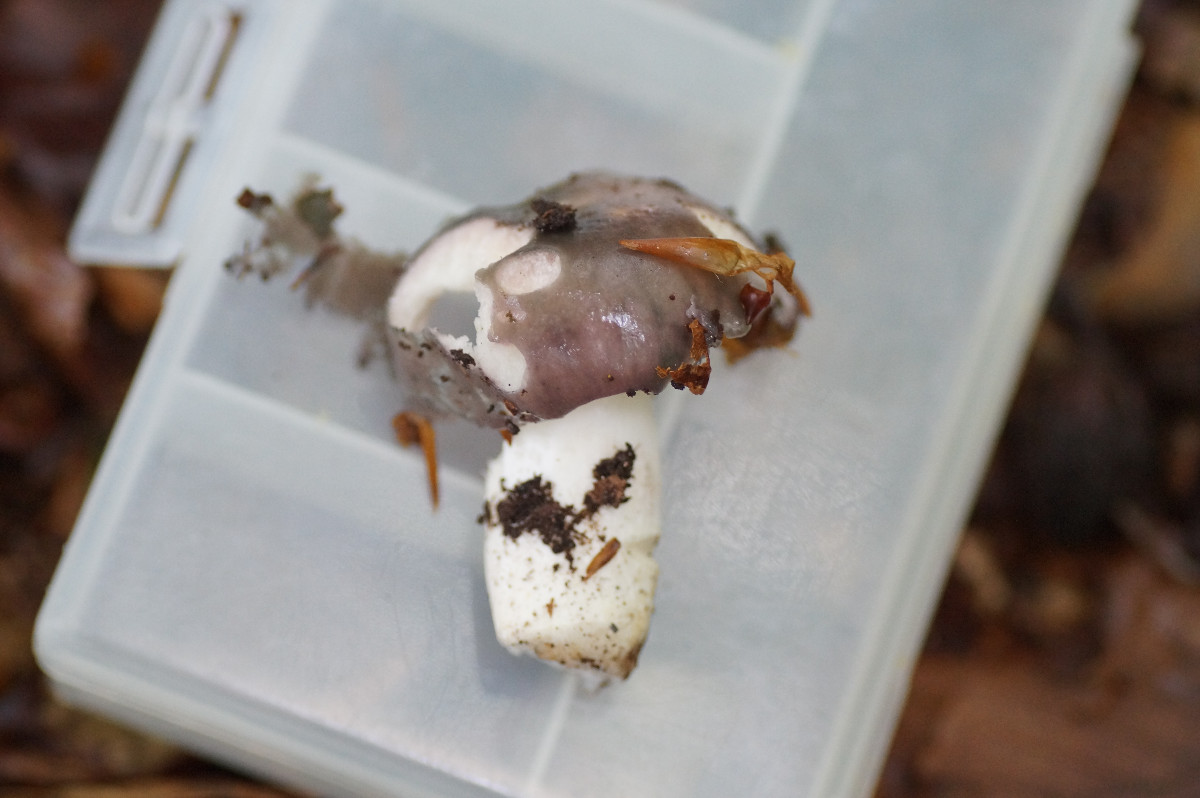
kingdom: Fungi
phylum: Basidiomycota
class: Agaricomycetes
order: Russulales
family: Russulaceae
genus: Russula
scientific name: Russula cyanoxantha
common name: broget skørhat
